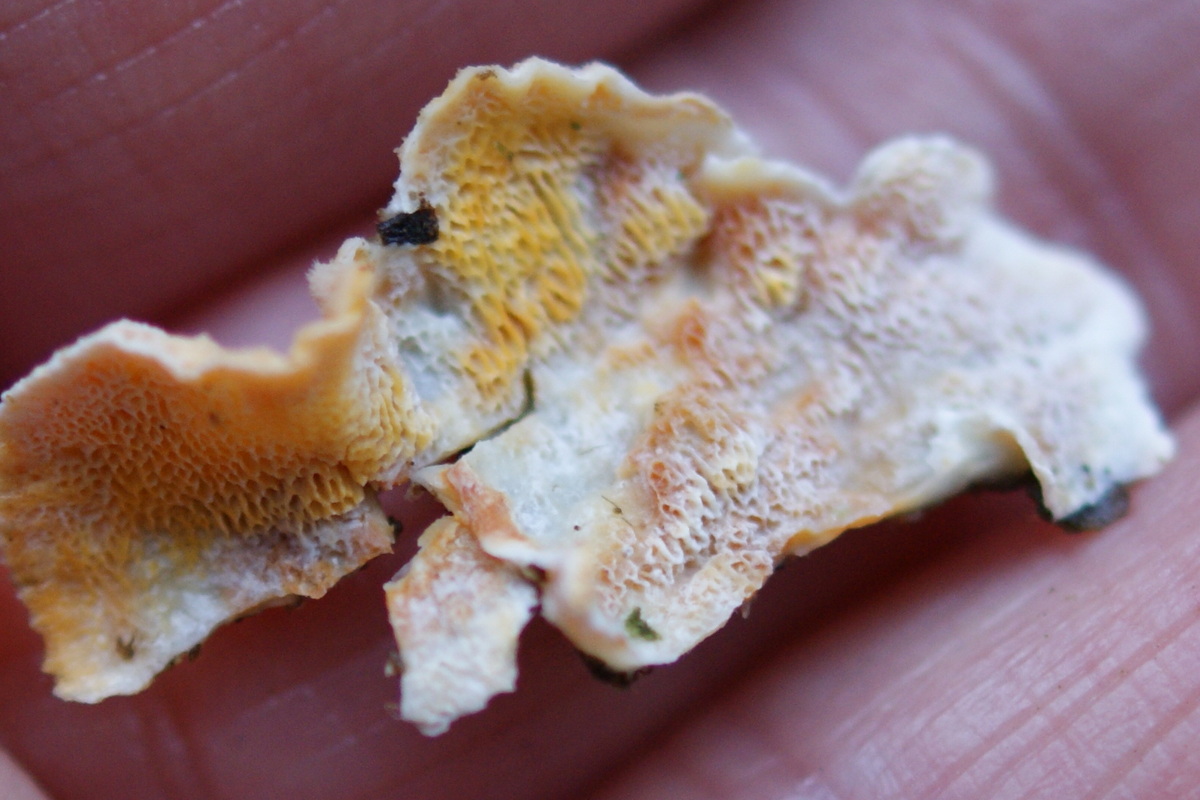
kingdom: Fungi
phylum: Basidiomycota
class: Agaricomycetes
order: Polyporales
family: Incrustoporiaceae
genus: Skeletocutis
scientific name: Skeletocutis amorpha
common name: orange krystalporesvamp
